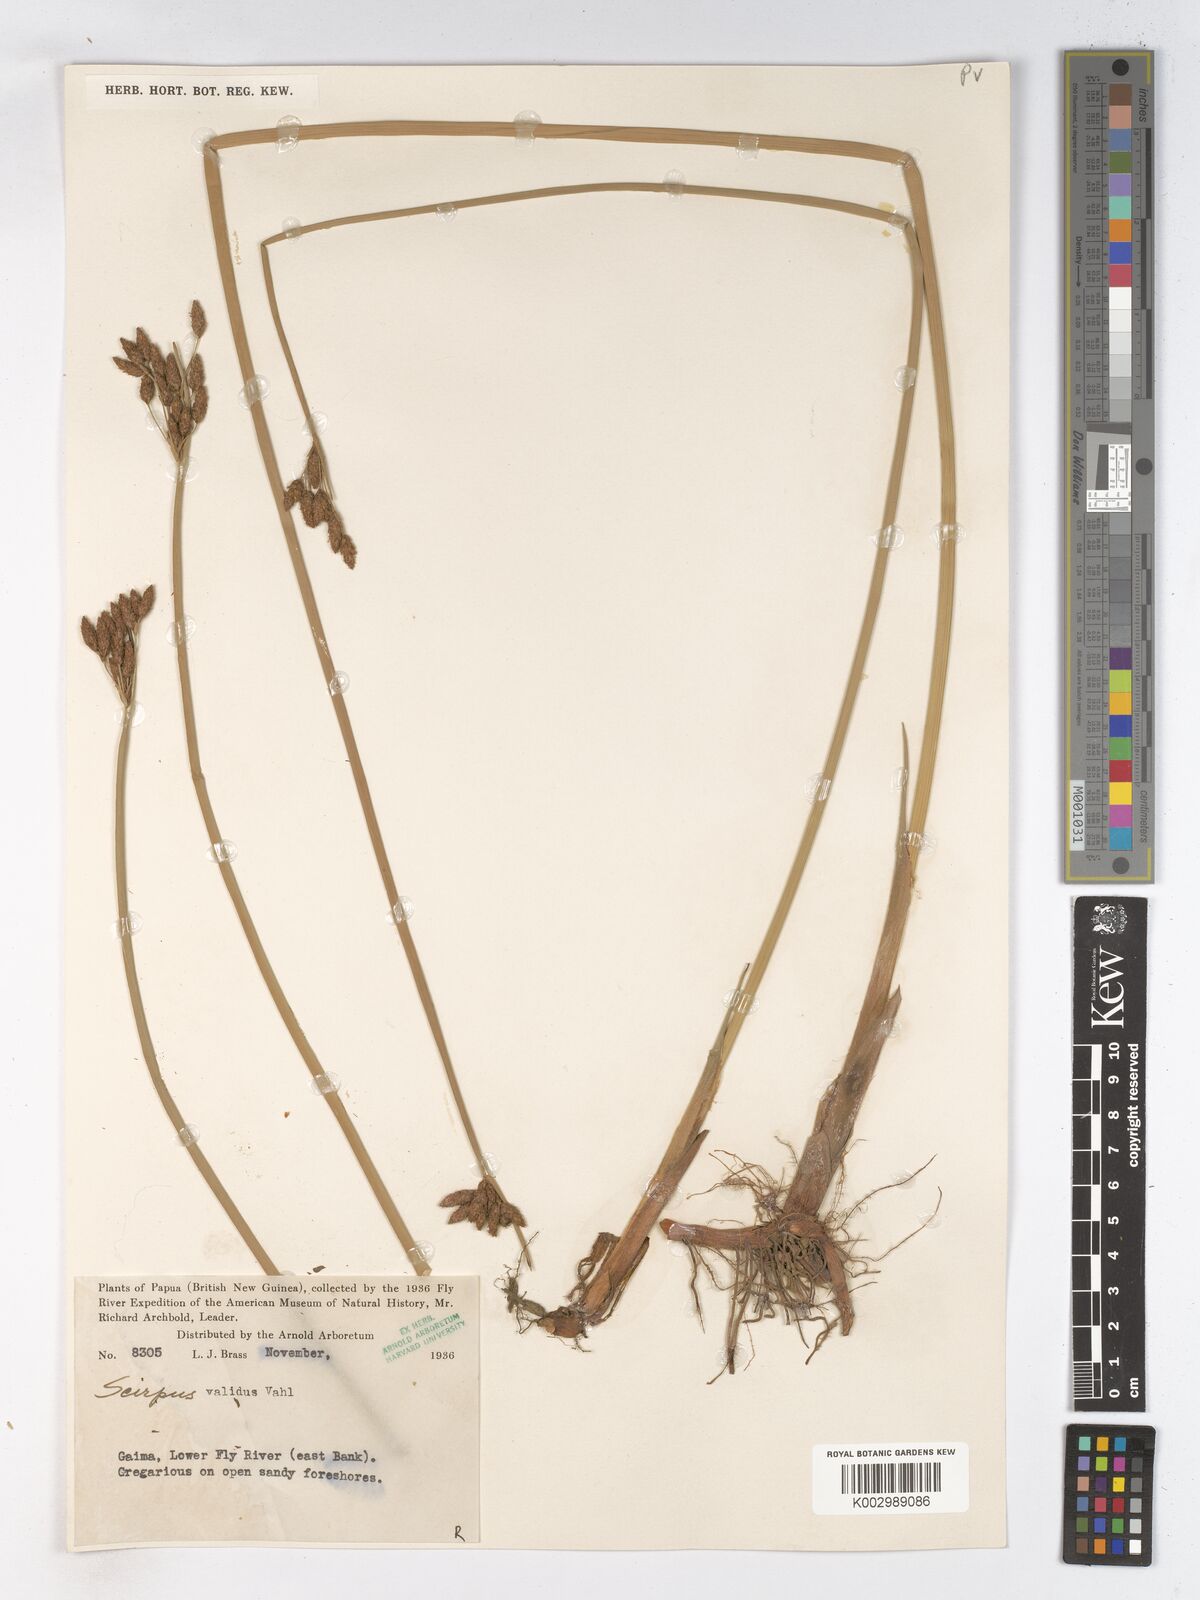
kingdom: Plantae
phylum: Tracheophyta
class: Liliopsida
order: Poales
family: Cyperaceae
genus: Schoenoplectus
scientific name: Schoenoplectus litoralis
